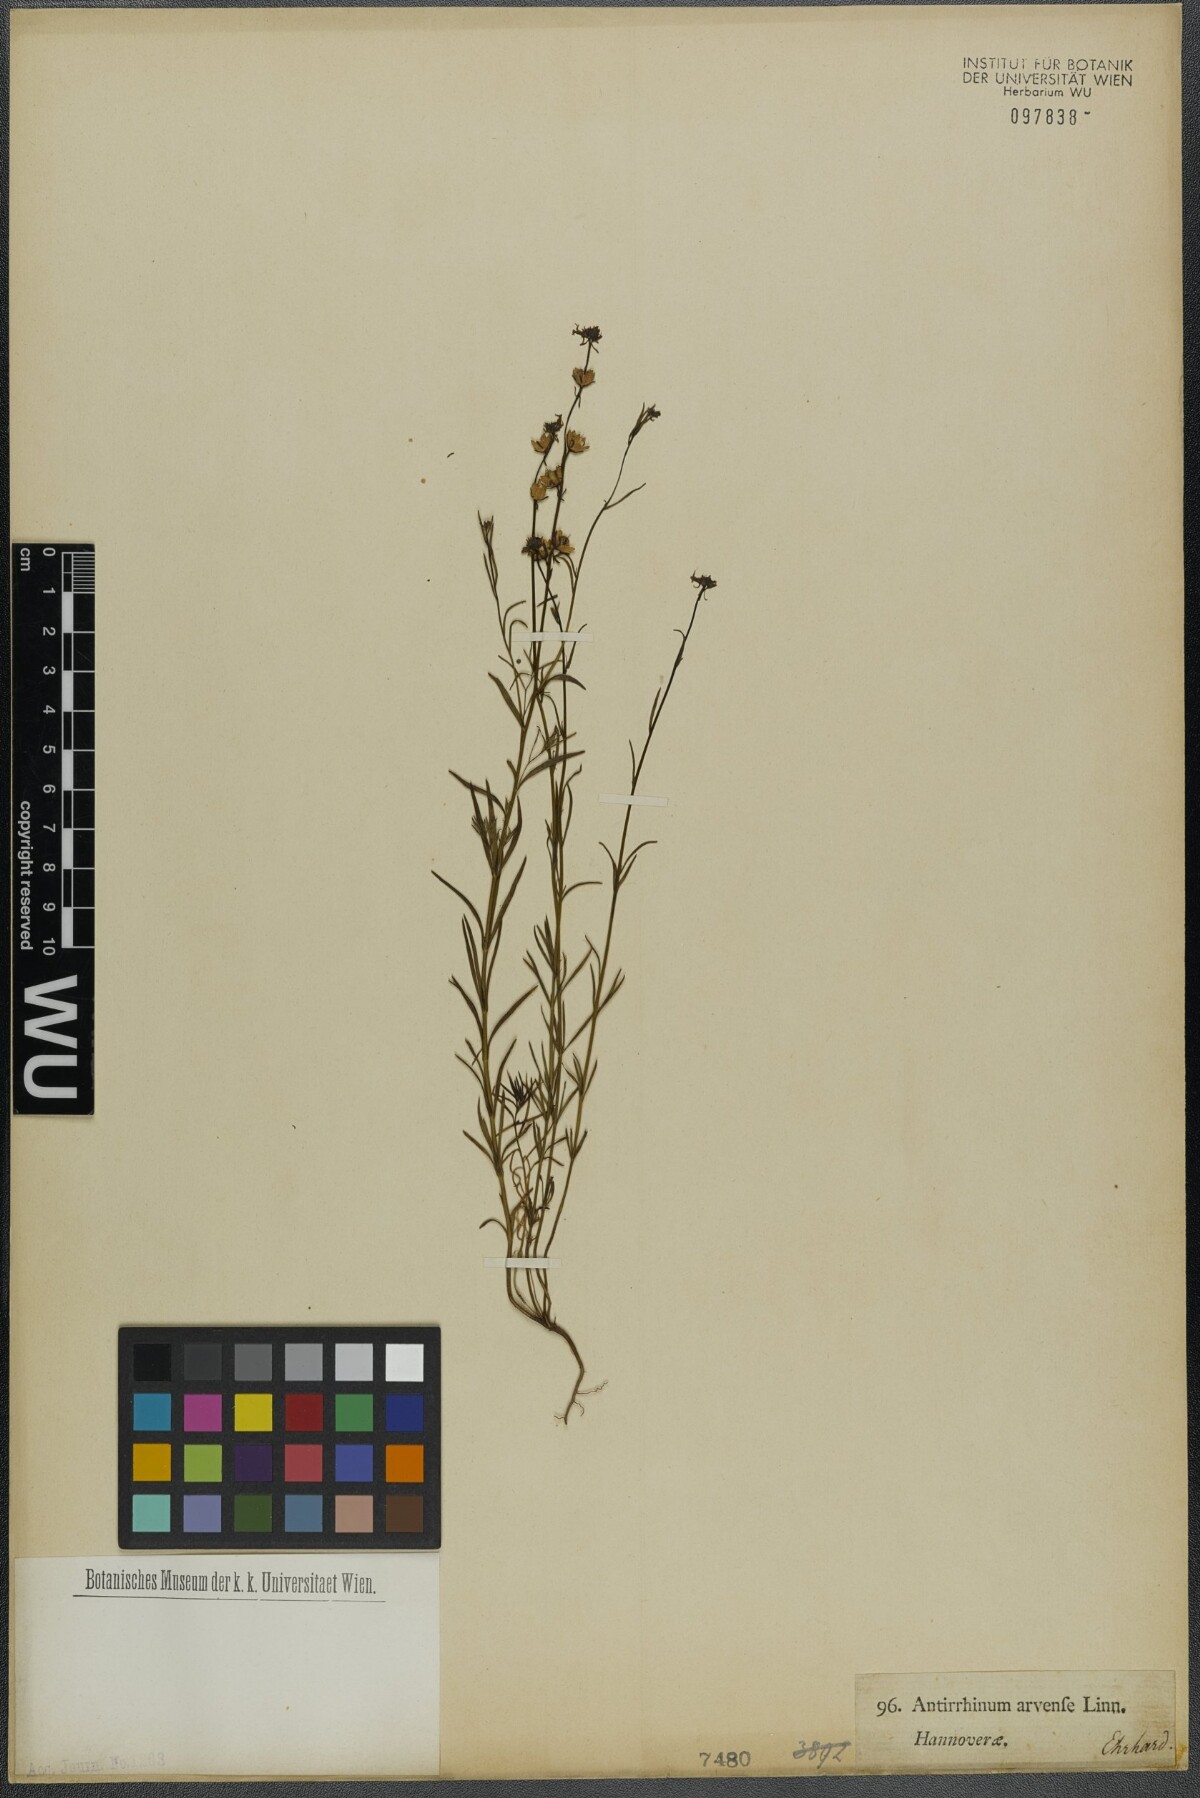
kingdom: Plantae
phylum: Tracheophyta
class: Magnoliopsida
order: Lamiales
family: Plantaginaceae
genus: Linaria
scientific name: Linaria arvensis
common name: Corn toadflax
